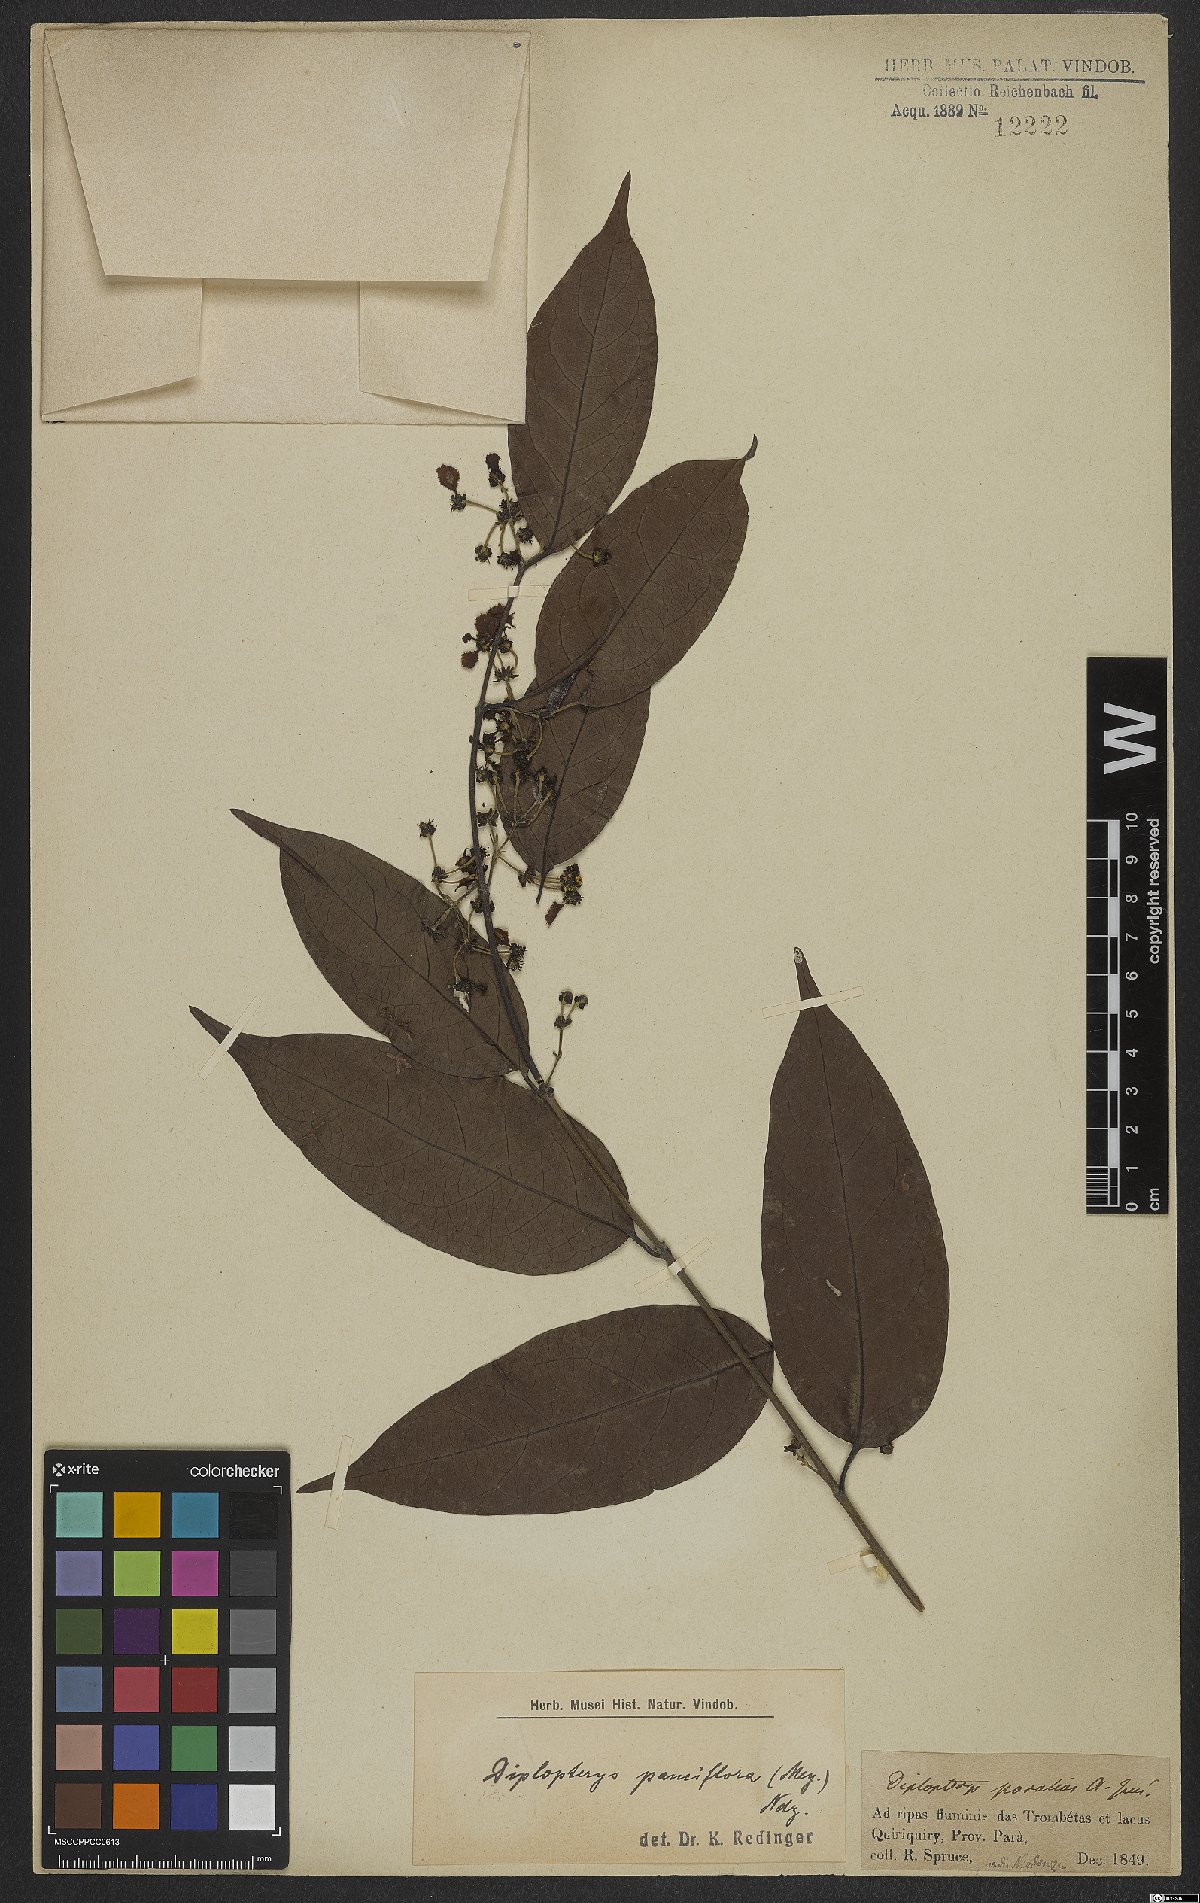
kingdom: Plantae
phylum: Tracheophyta
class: Magnoliopsida
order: Malpighiales
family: Malpighiaceae
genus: Diplopterys
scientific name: Diplopterys pauciflora
